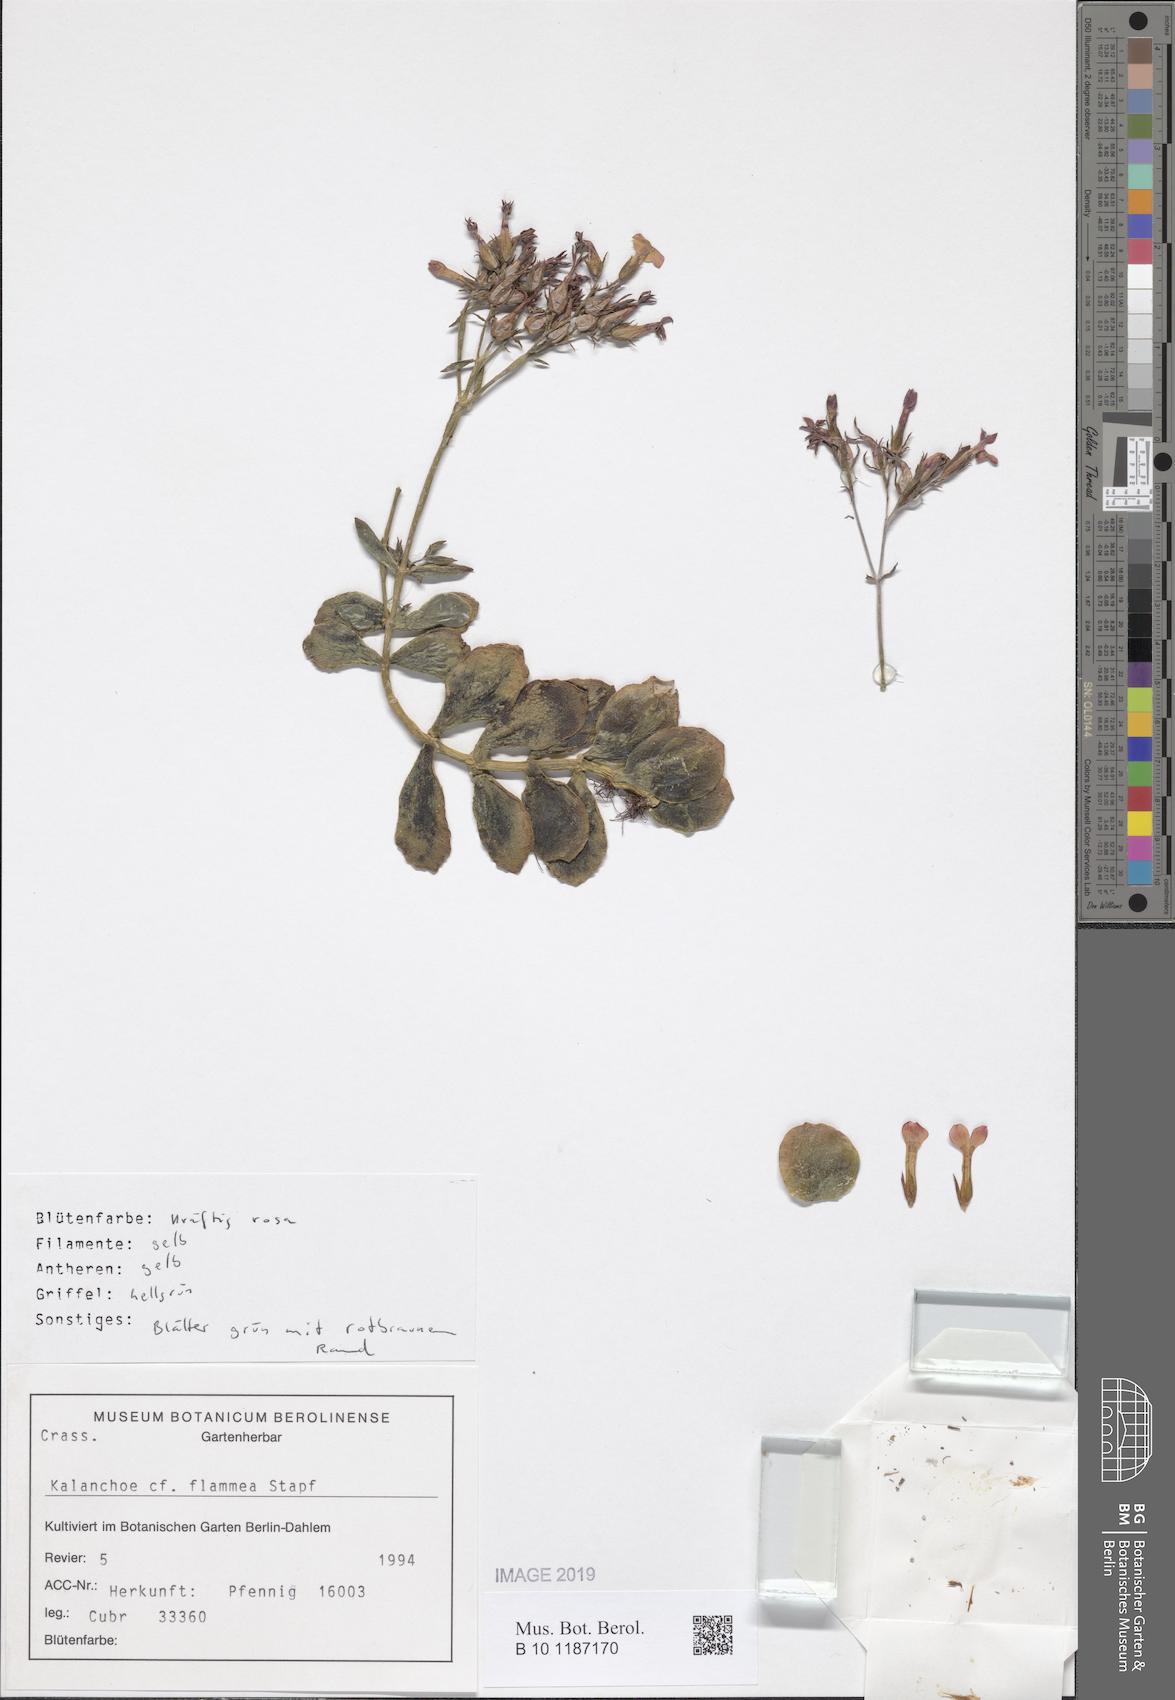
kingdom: Plantae
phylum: Tracheophyta
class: Magnoliopsida
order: Saxifragales
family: Crassulaceae
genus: Kalanchoe
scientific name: Kalanchoe glaucescens
